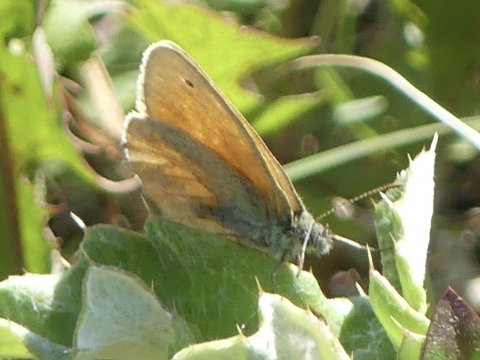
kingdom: Animalia
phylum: Arthropoda
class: Insecta
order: Lepidoptera
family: Nymphalidae
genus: Coenonympha
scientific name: Coenonympha tullia
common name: Large Heath
